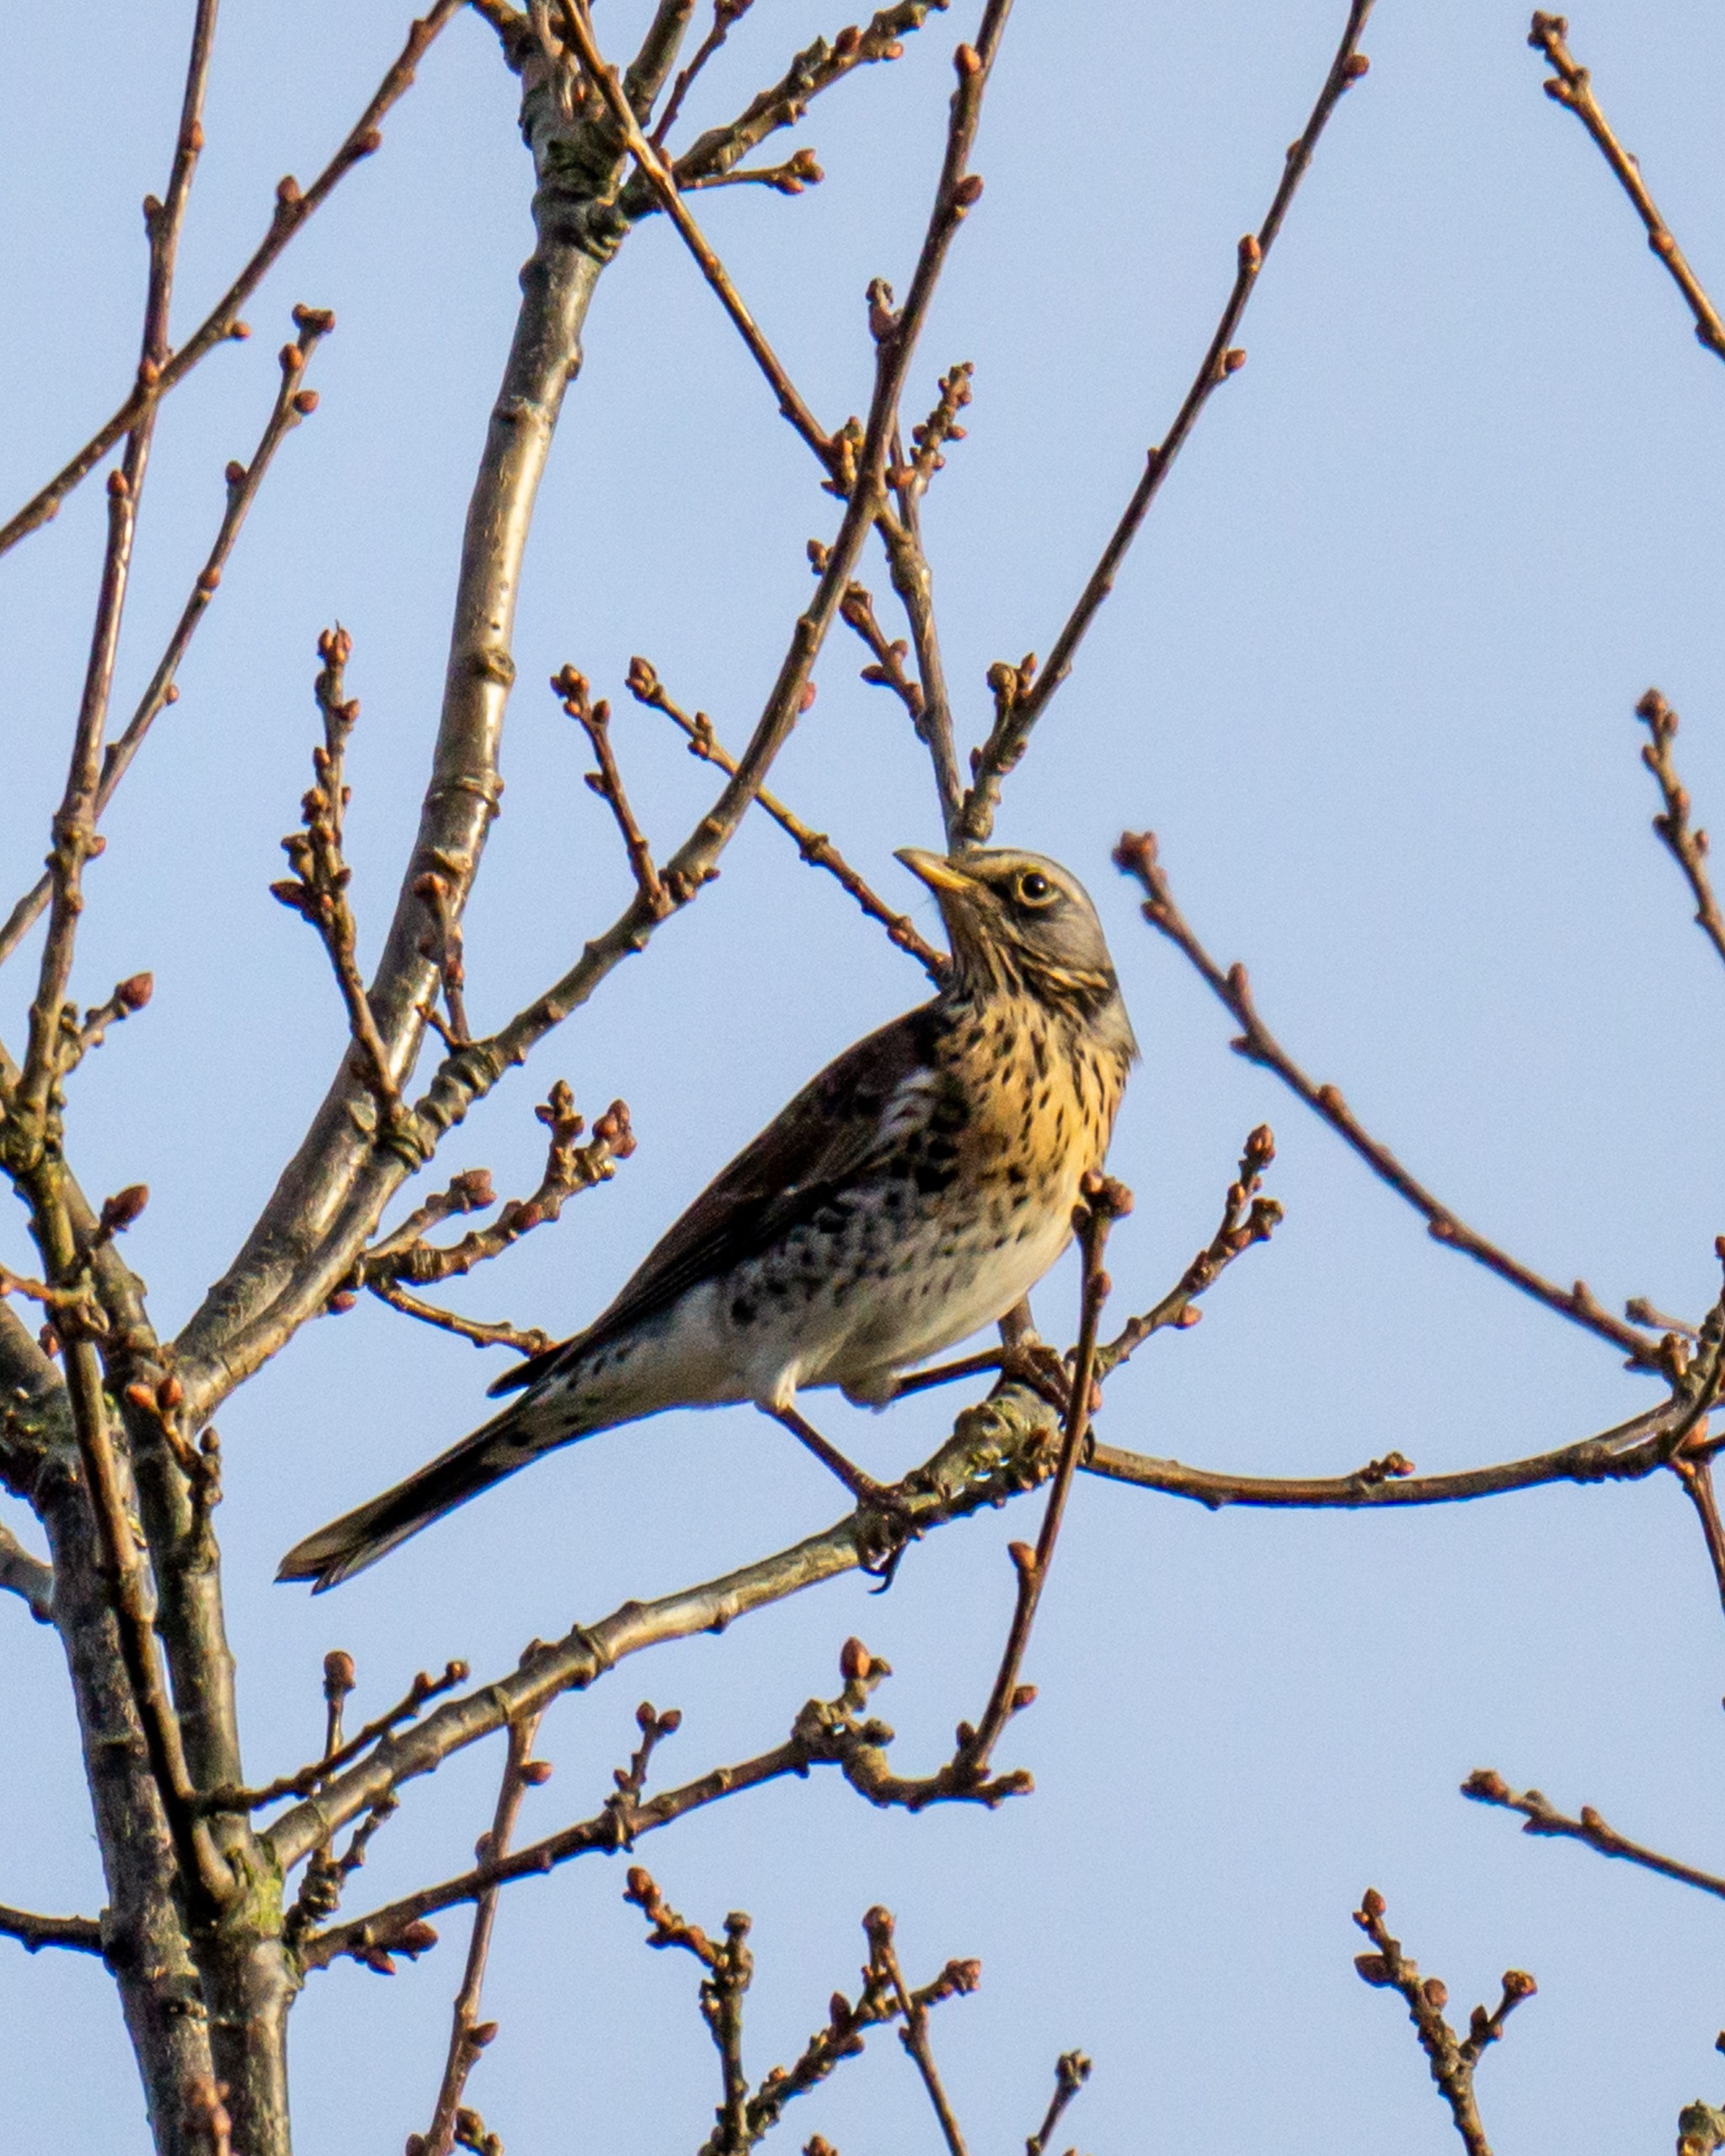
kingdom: Animalia
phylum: Chordata
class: Aves
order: Passeriformes
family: Turdidae
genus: Turdus
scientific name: Turdus pilaris
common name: Sjagger
